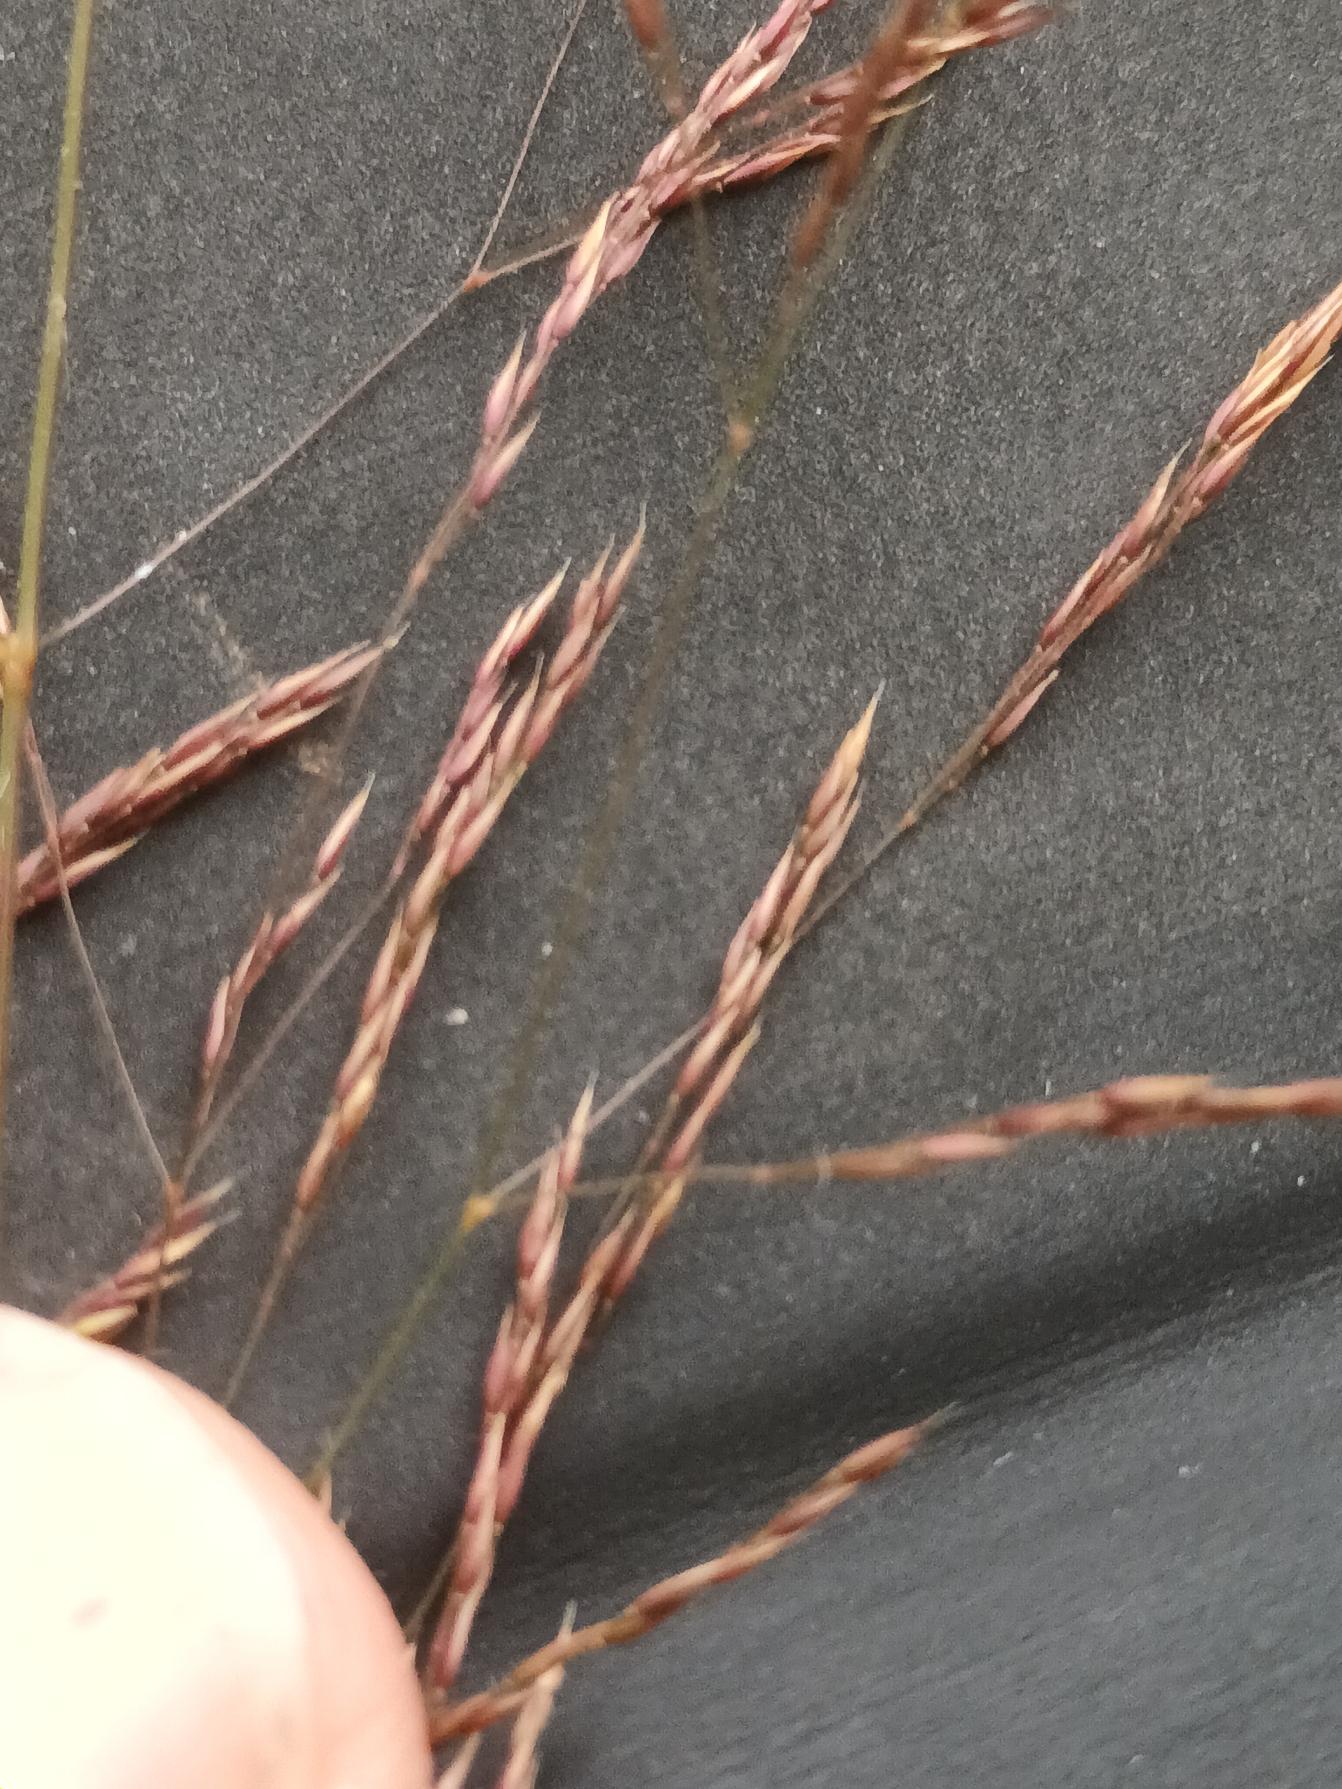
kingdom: Plantae
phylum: Tracheophyta
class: Liliopsida
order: Poales
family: Poaceae
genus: Agrostis
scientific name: Agrostis canina
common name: Hunde-hvene
